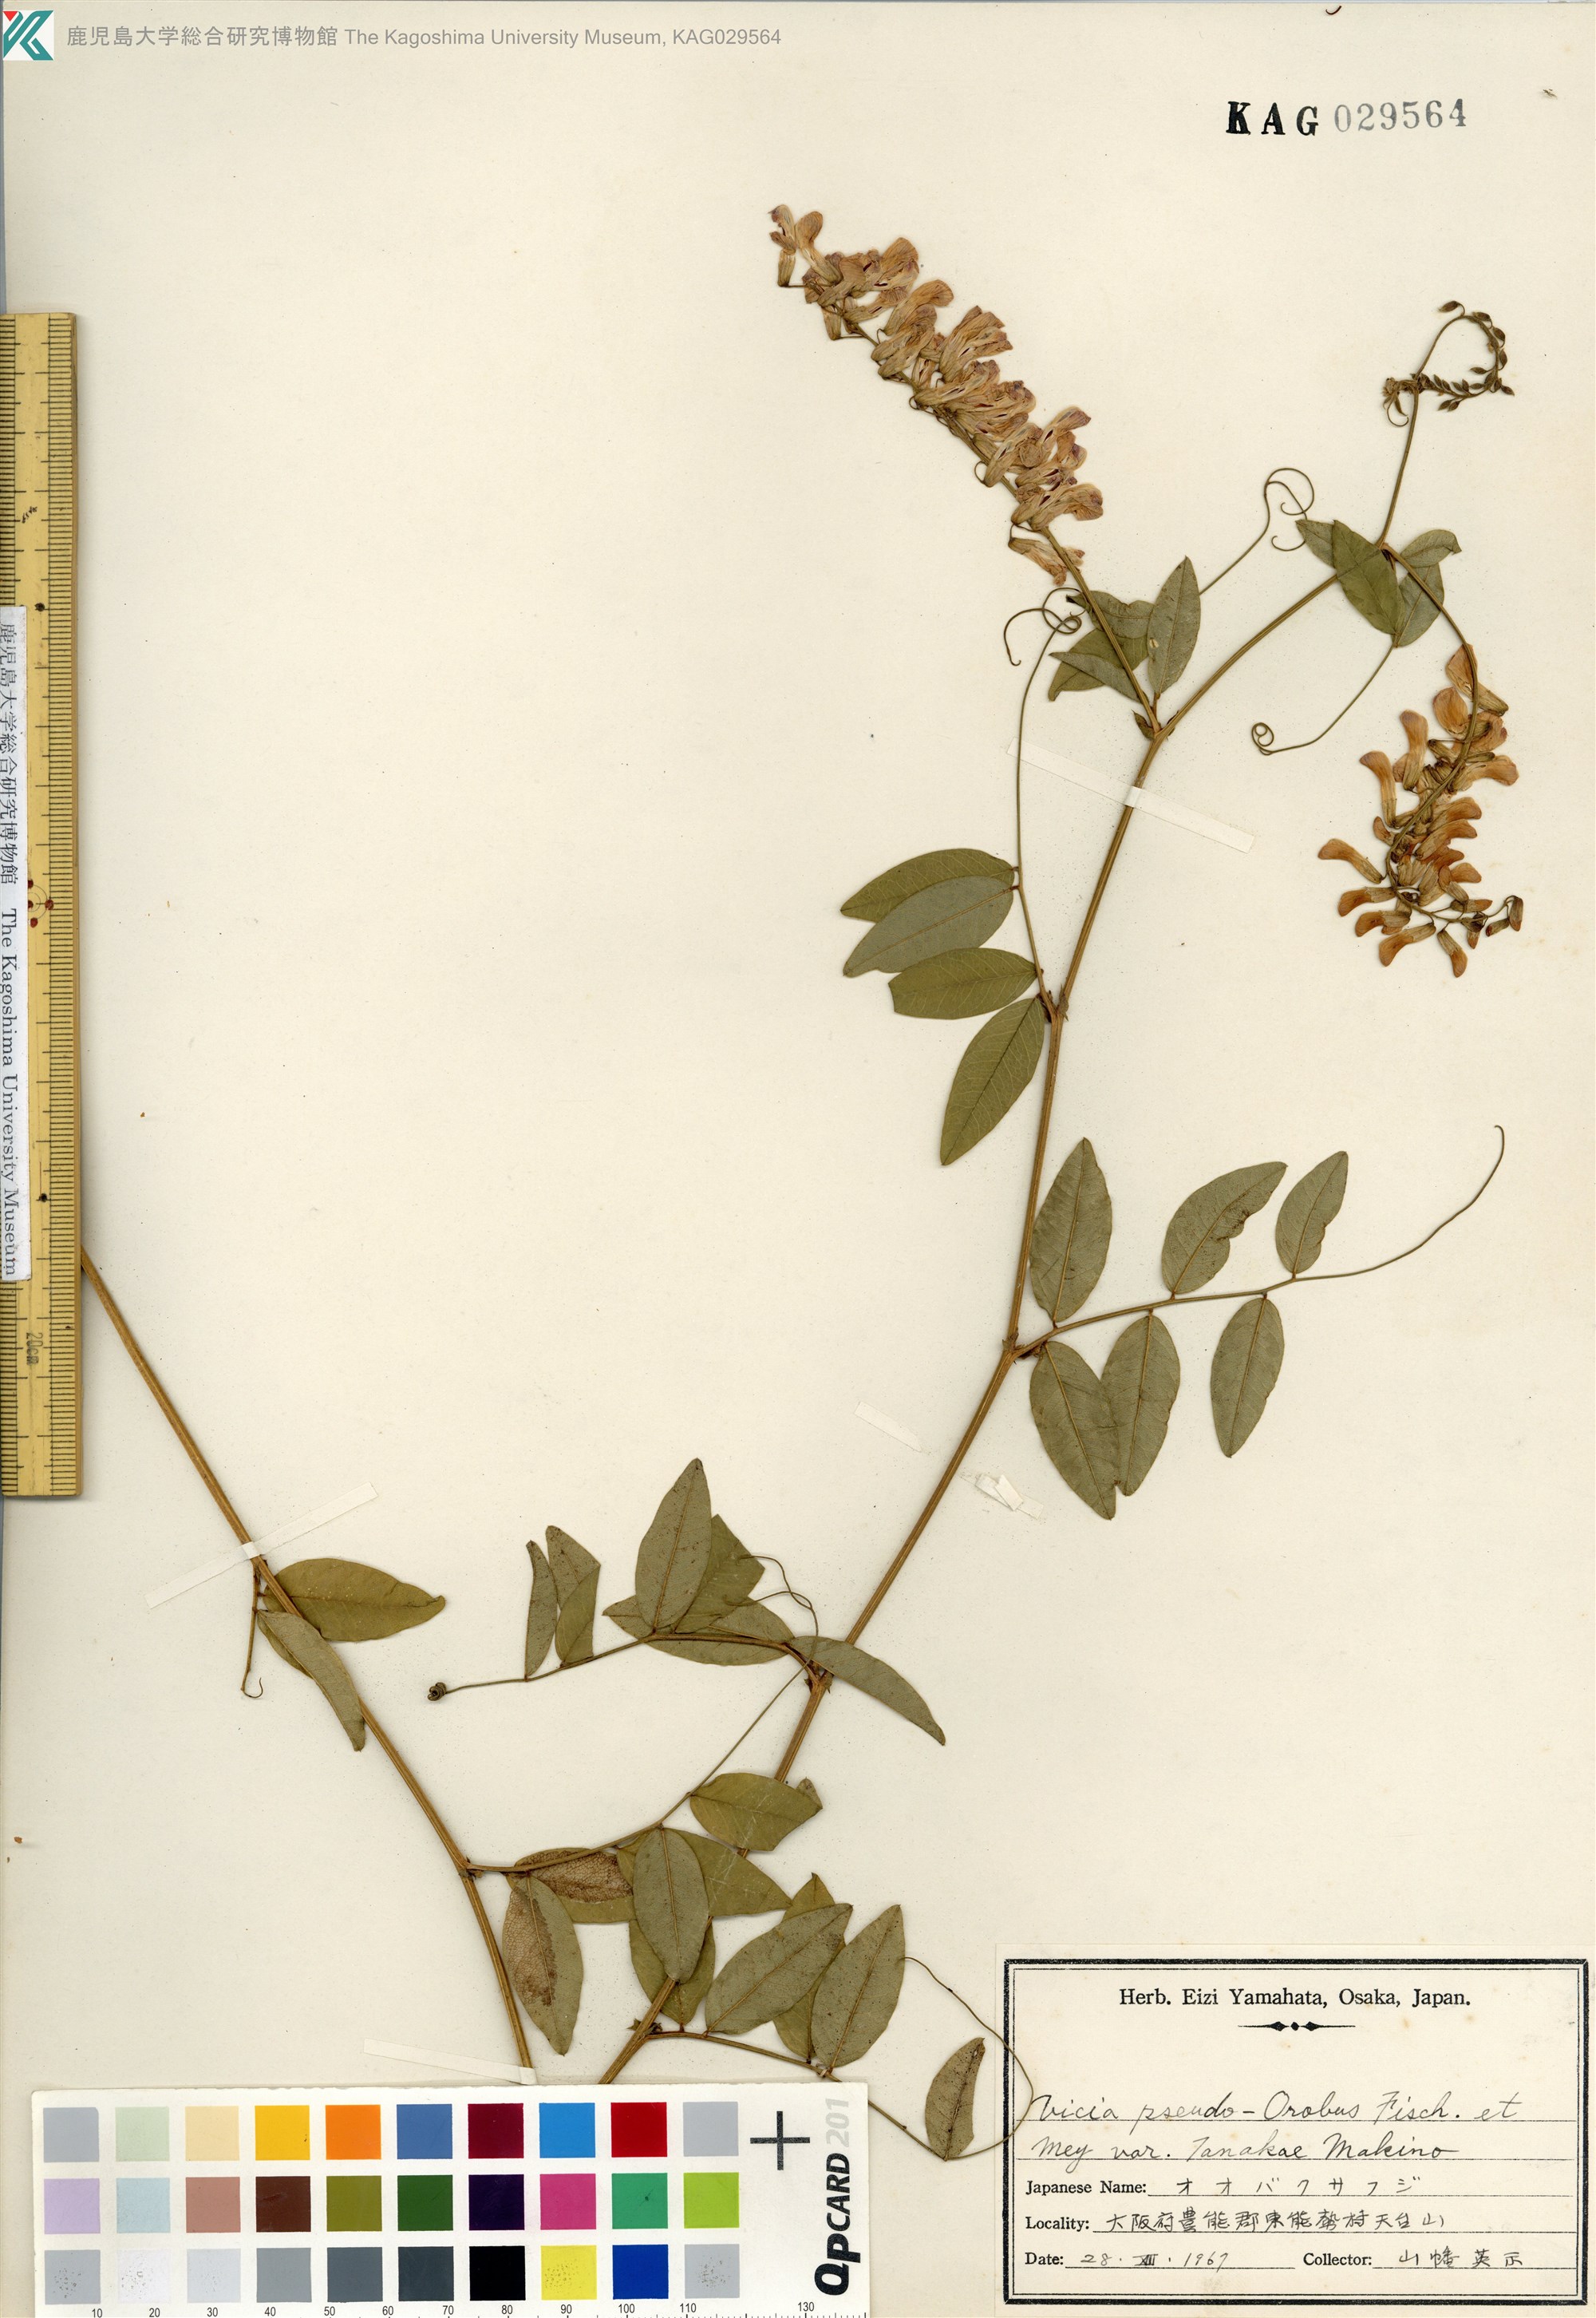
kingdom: Plantae
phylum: Tracheophyta
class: Magnoliopsida
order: Fabales
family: Fabaceae
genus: Vicia
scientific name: Vicia pseudo-orobus
